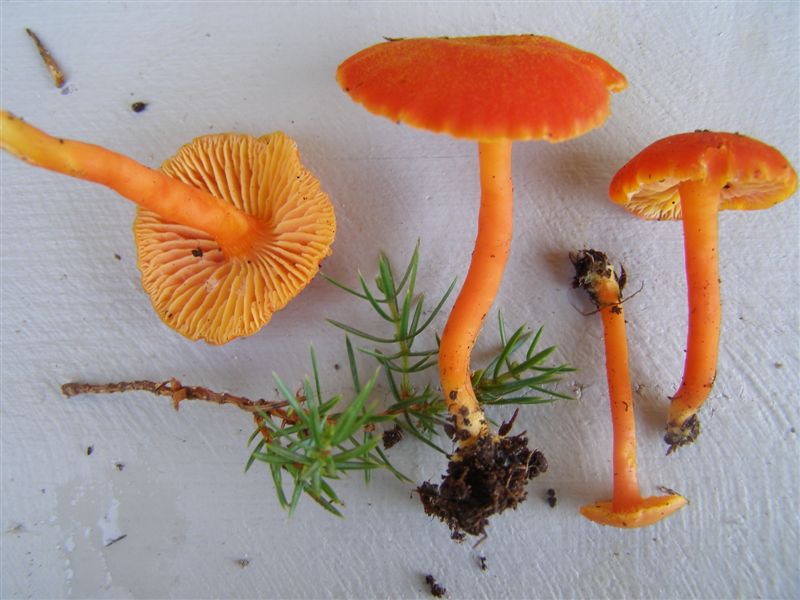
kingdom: Fungi
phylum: Basidiomycota
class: Agaricomycetes
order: Agaricales
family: Hygrophoraceae
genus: Hygrocybe
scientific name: Hygrocybe miniata
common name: mønje-vokshat
